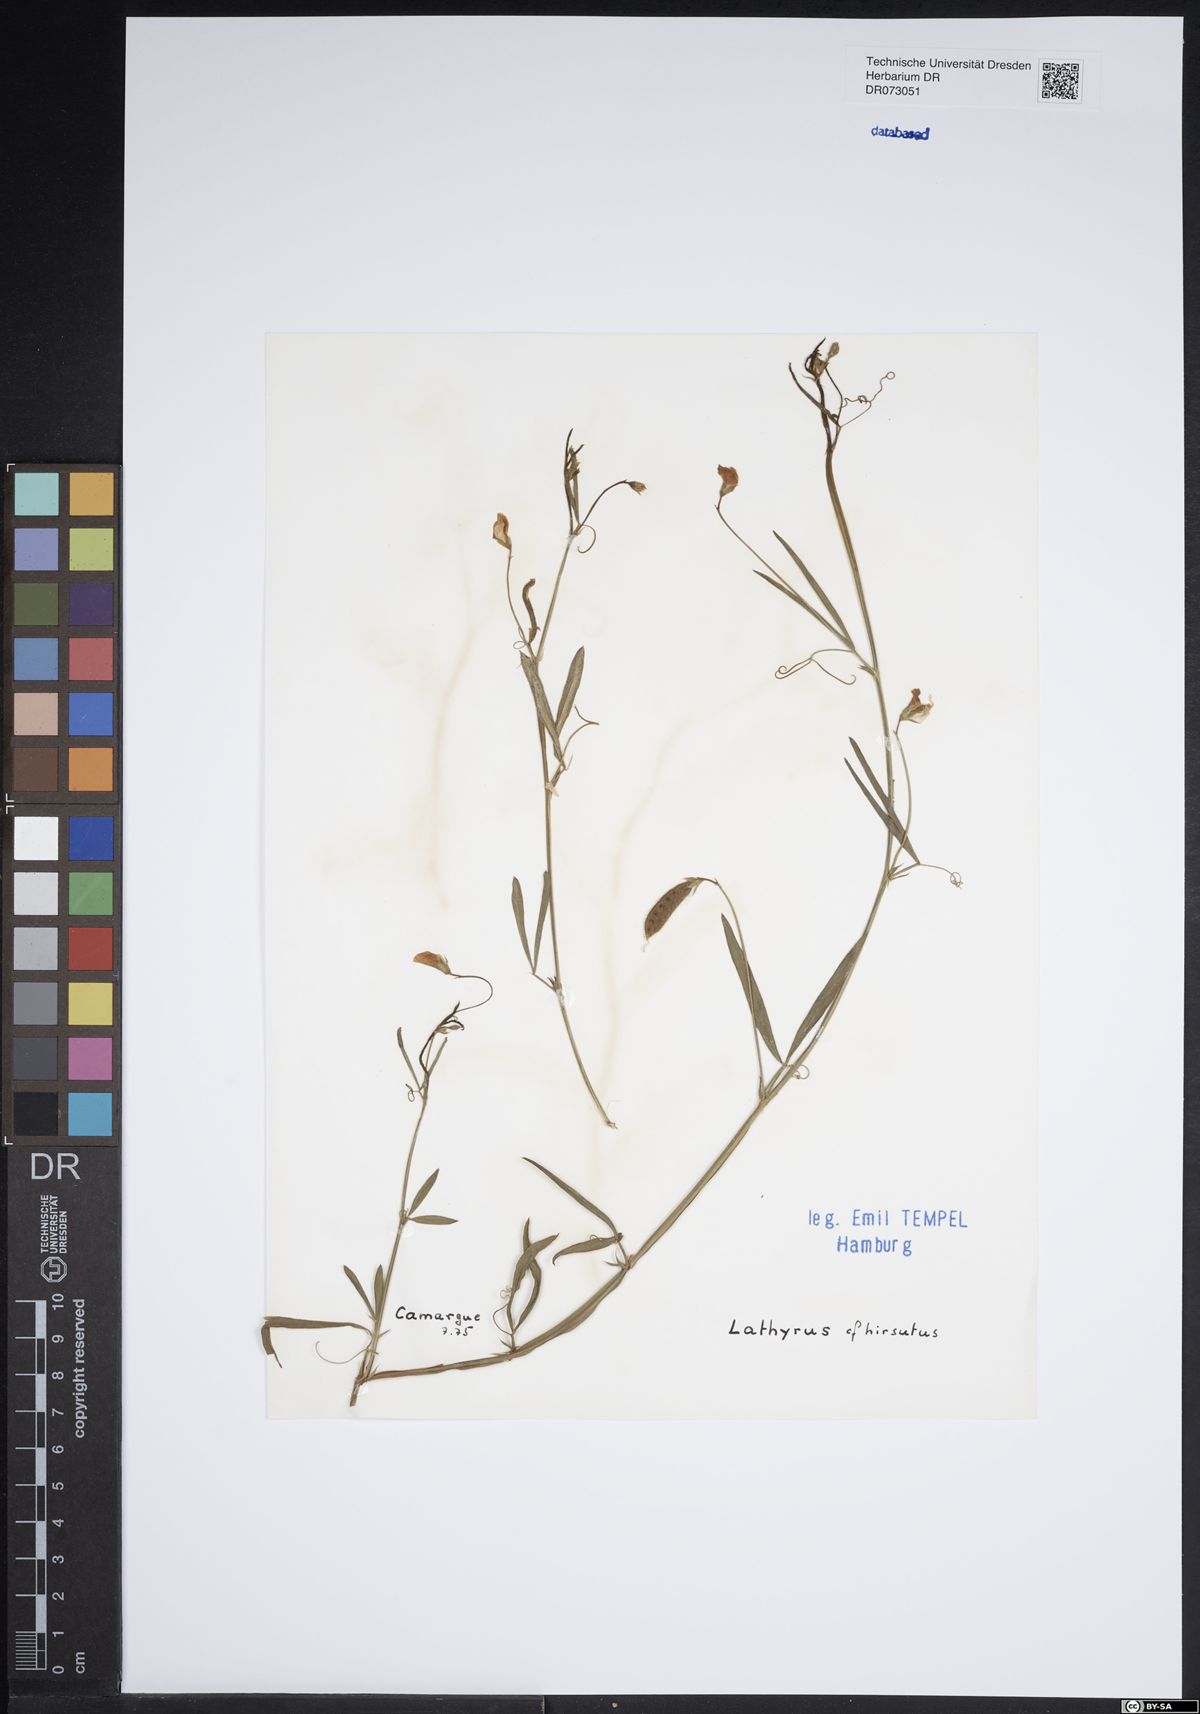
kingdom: Plantae
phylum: Tracheophyta
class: Magnoliopsida
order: Fabales
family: Fabaceae
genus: Lathyrus
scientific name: Lathyrus hirsutus
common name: Hairy vetchling
